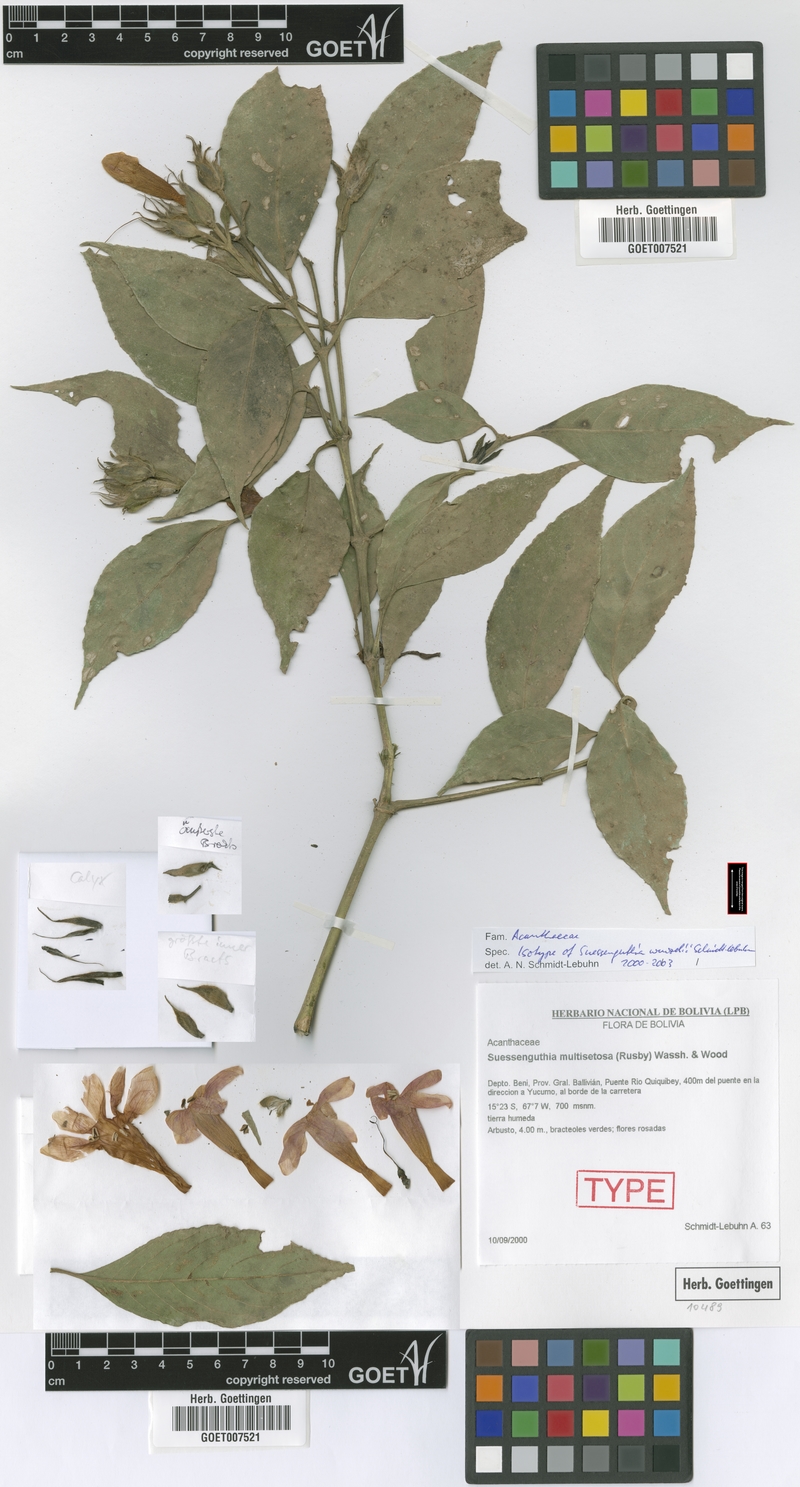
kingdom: Plantae
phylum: Tracheophyta
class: Magnoliopsida
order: Lamiales
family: Acanthaceae
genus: Suessenguthia
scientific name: Suessenguthia wenzelii
